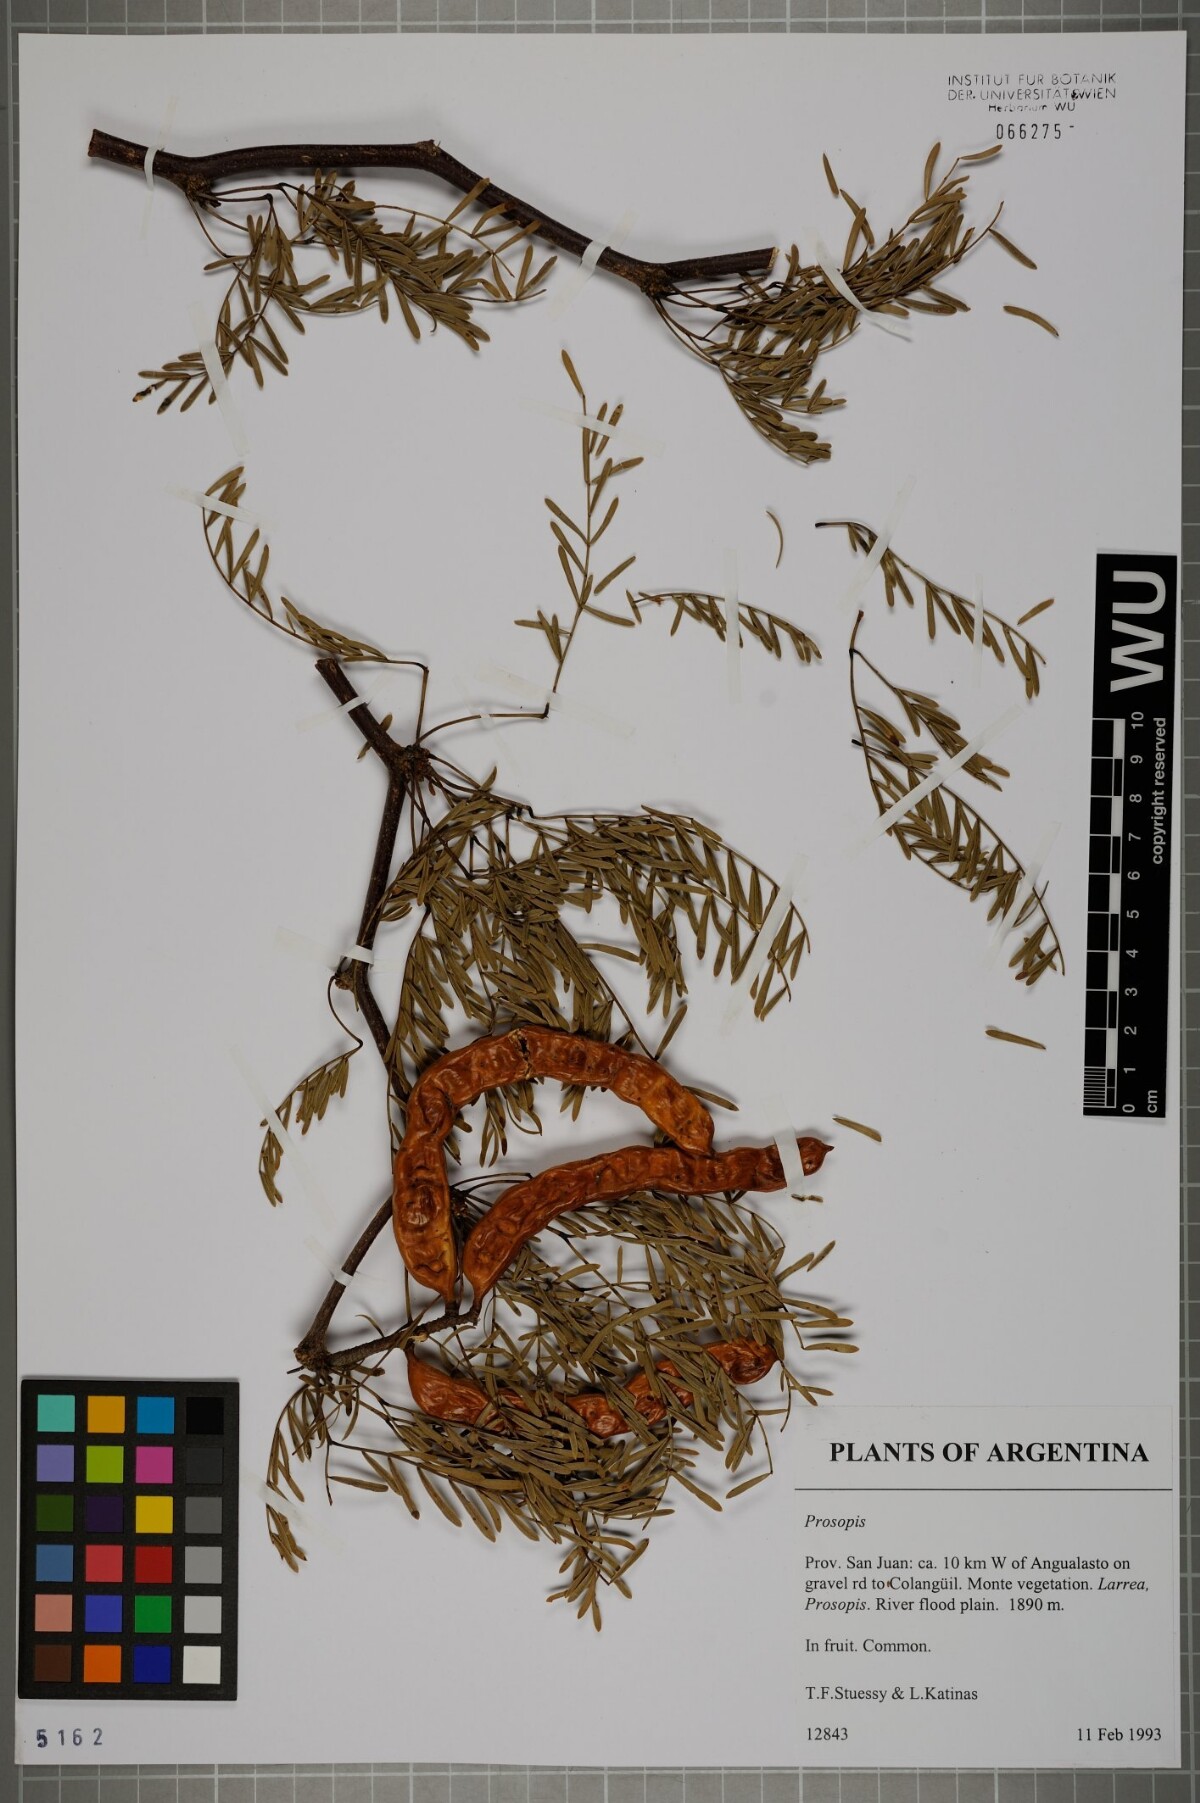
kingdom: Plantae
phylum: Tracheophyta
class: Magnoliopsida
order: Fabales
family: Fabaceae
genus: Prosopis
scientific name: Prosopis
